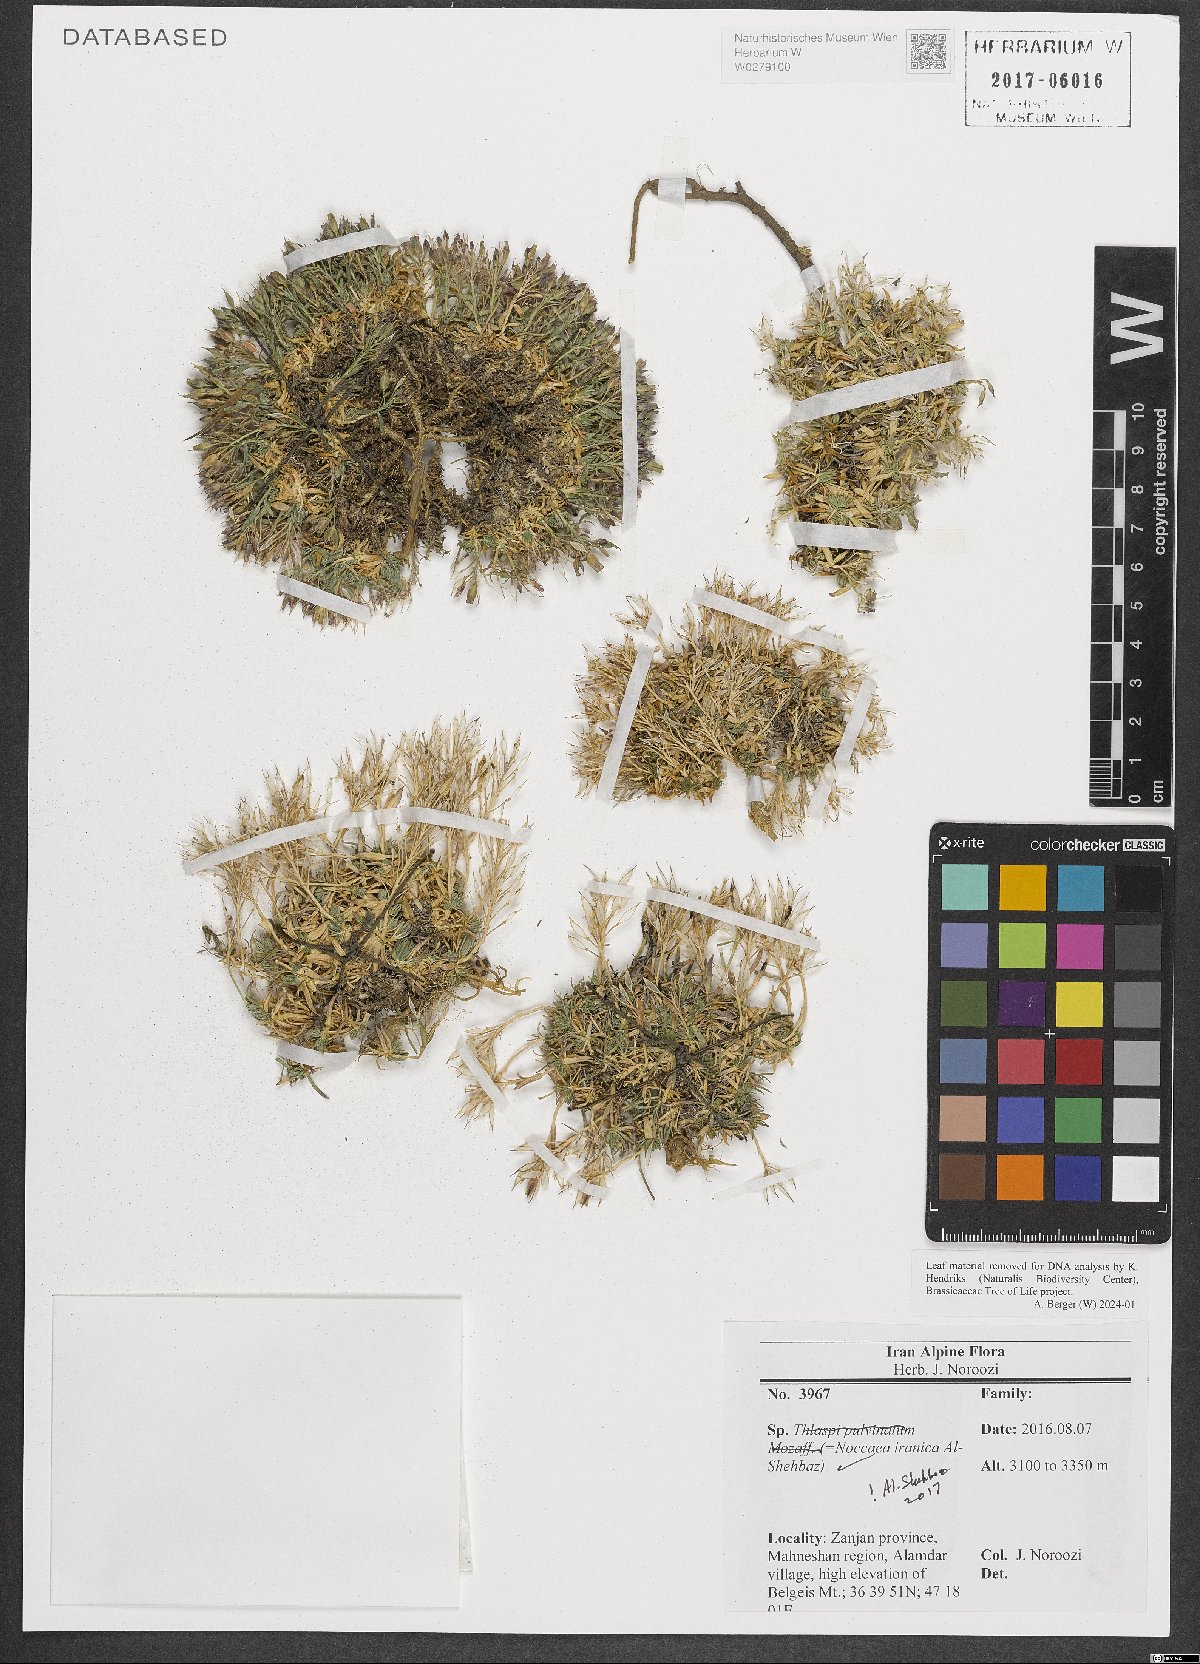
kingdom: Plantae
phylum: Tracheophyta
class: Magnoliopsida
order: Brassicales
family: Brassicaceae
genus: Noccaea
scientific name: Noccaea iranica
